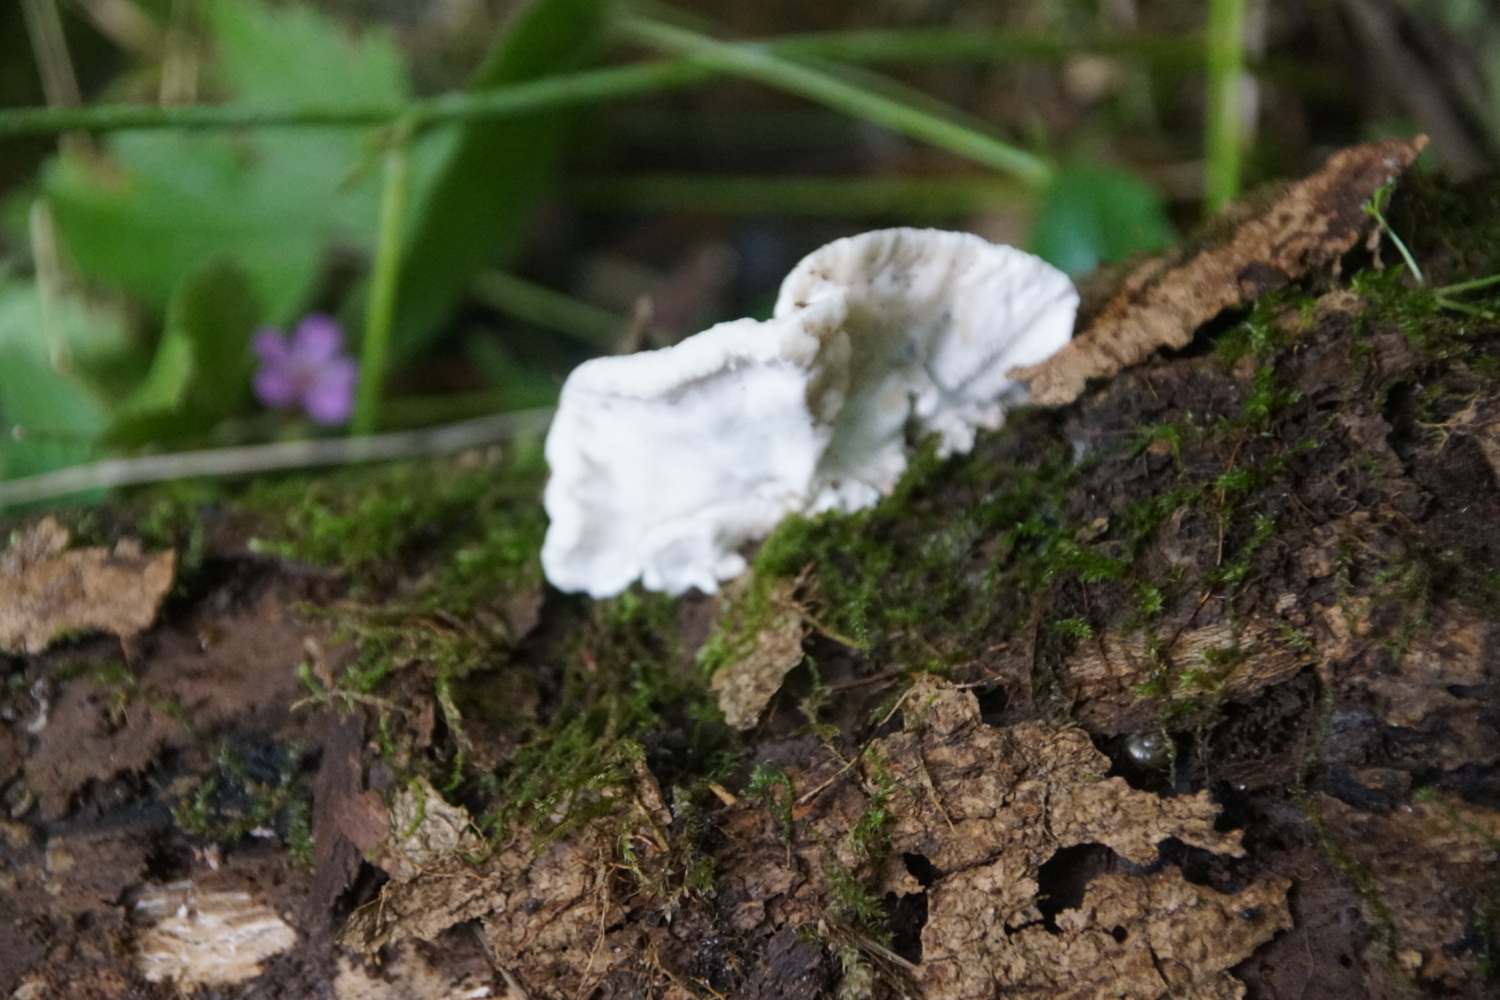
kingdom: Fungi
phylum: Basidiomycota
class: Agaricomycetes
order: Polyporales
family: Incrustoporiaceae
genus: Skeletocutis
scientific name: Skeletocutis nemoralis
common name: stor krystalporesvamp
